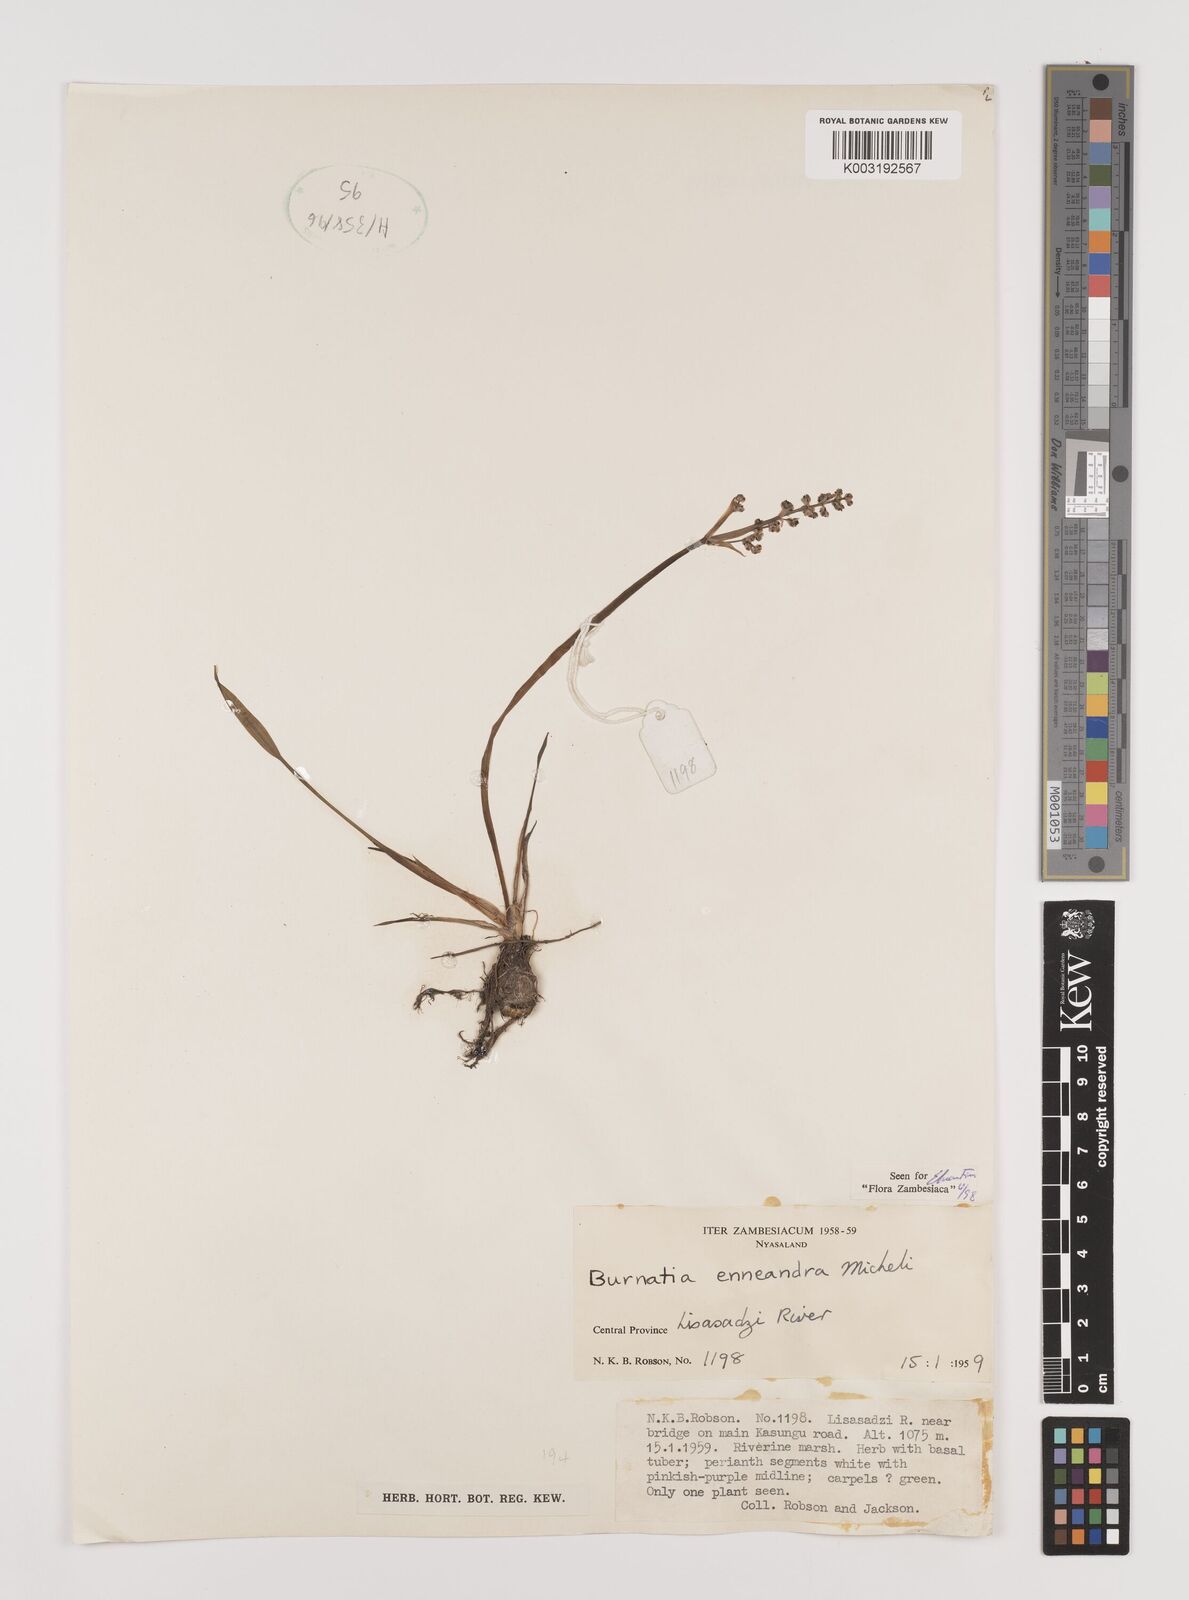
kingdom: Plantae
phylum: Tracheophyta
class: Liliopsida
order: Alismatales
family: Alismataceae
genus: Burnatia
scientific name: Burnatia enneandra
